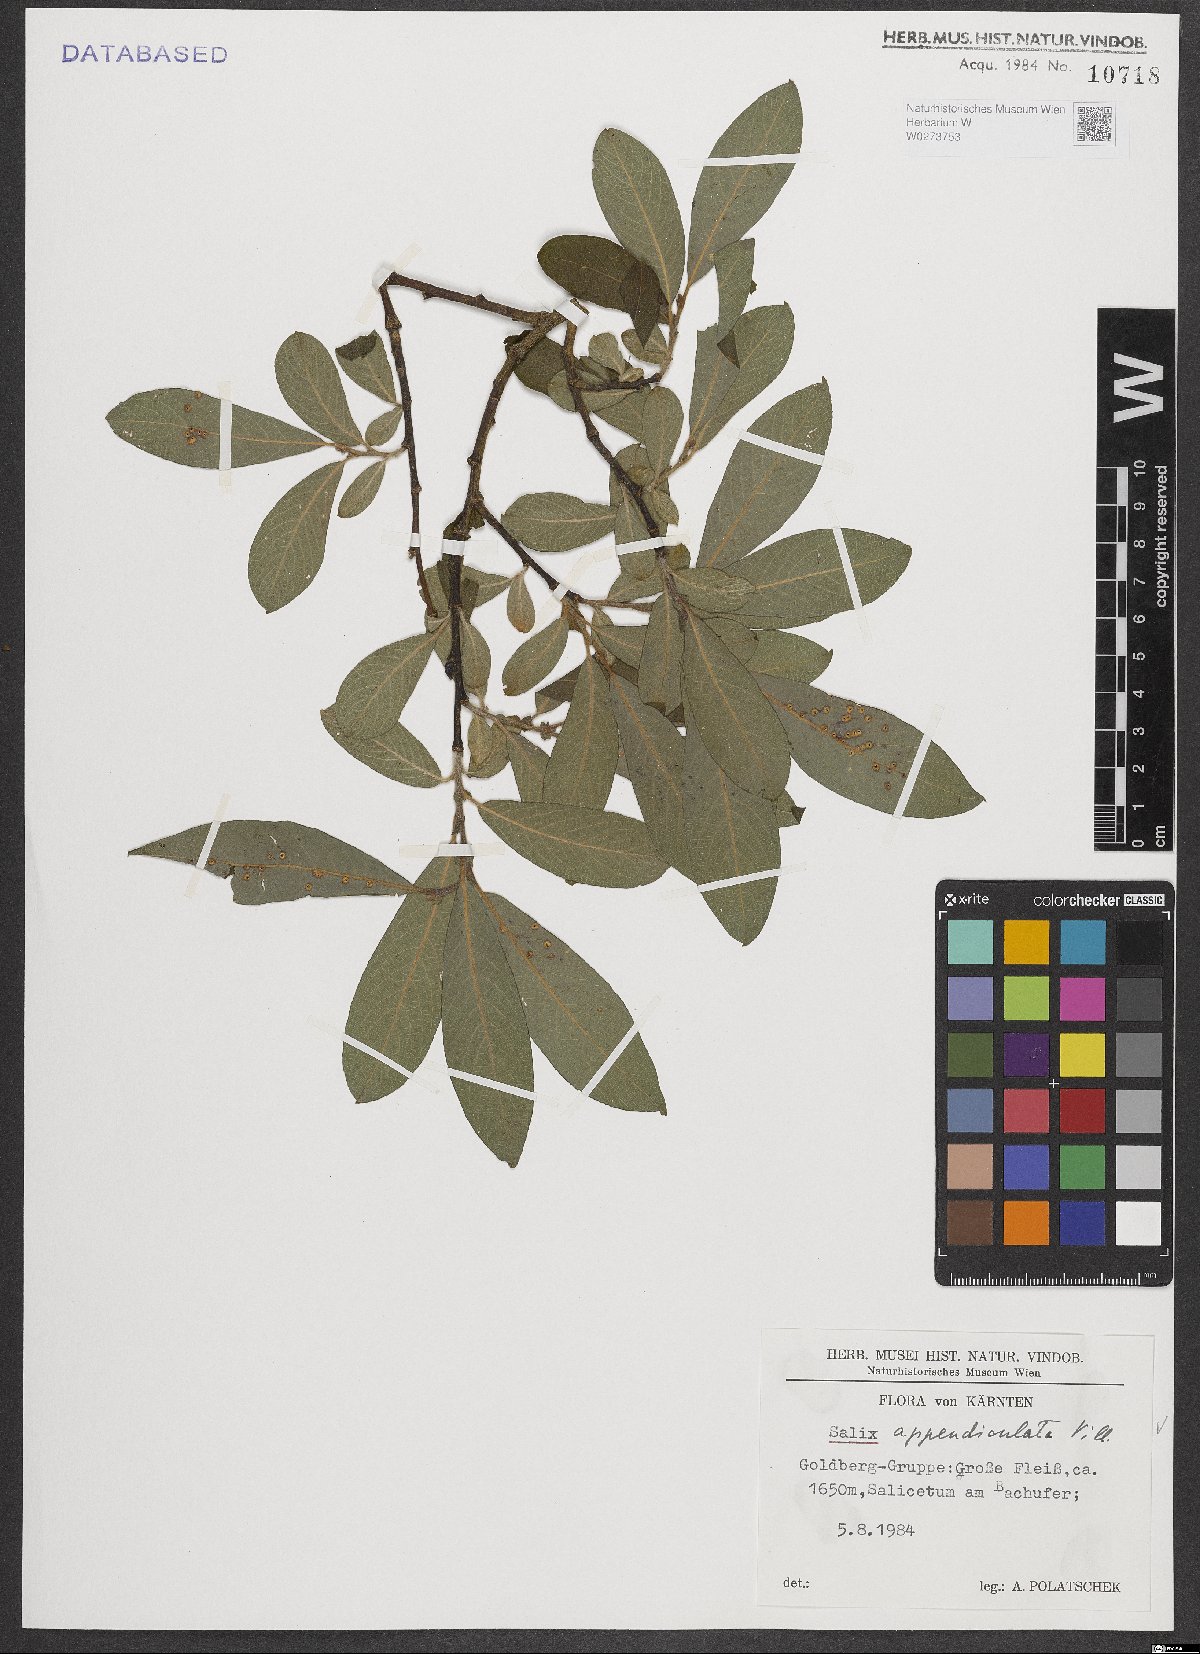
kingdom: Plantae
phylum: Tracheophyta
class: Magnoliopsida
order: Malpighiales
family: Salicaceae
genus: Salix
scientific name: Salix appendiculata
